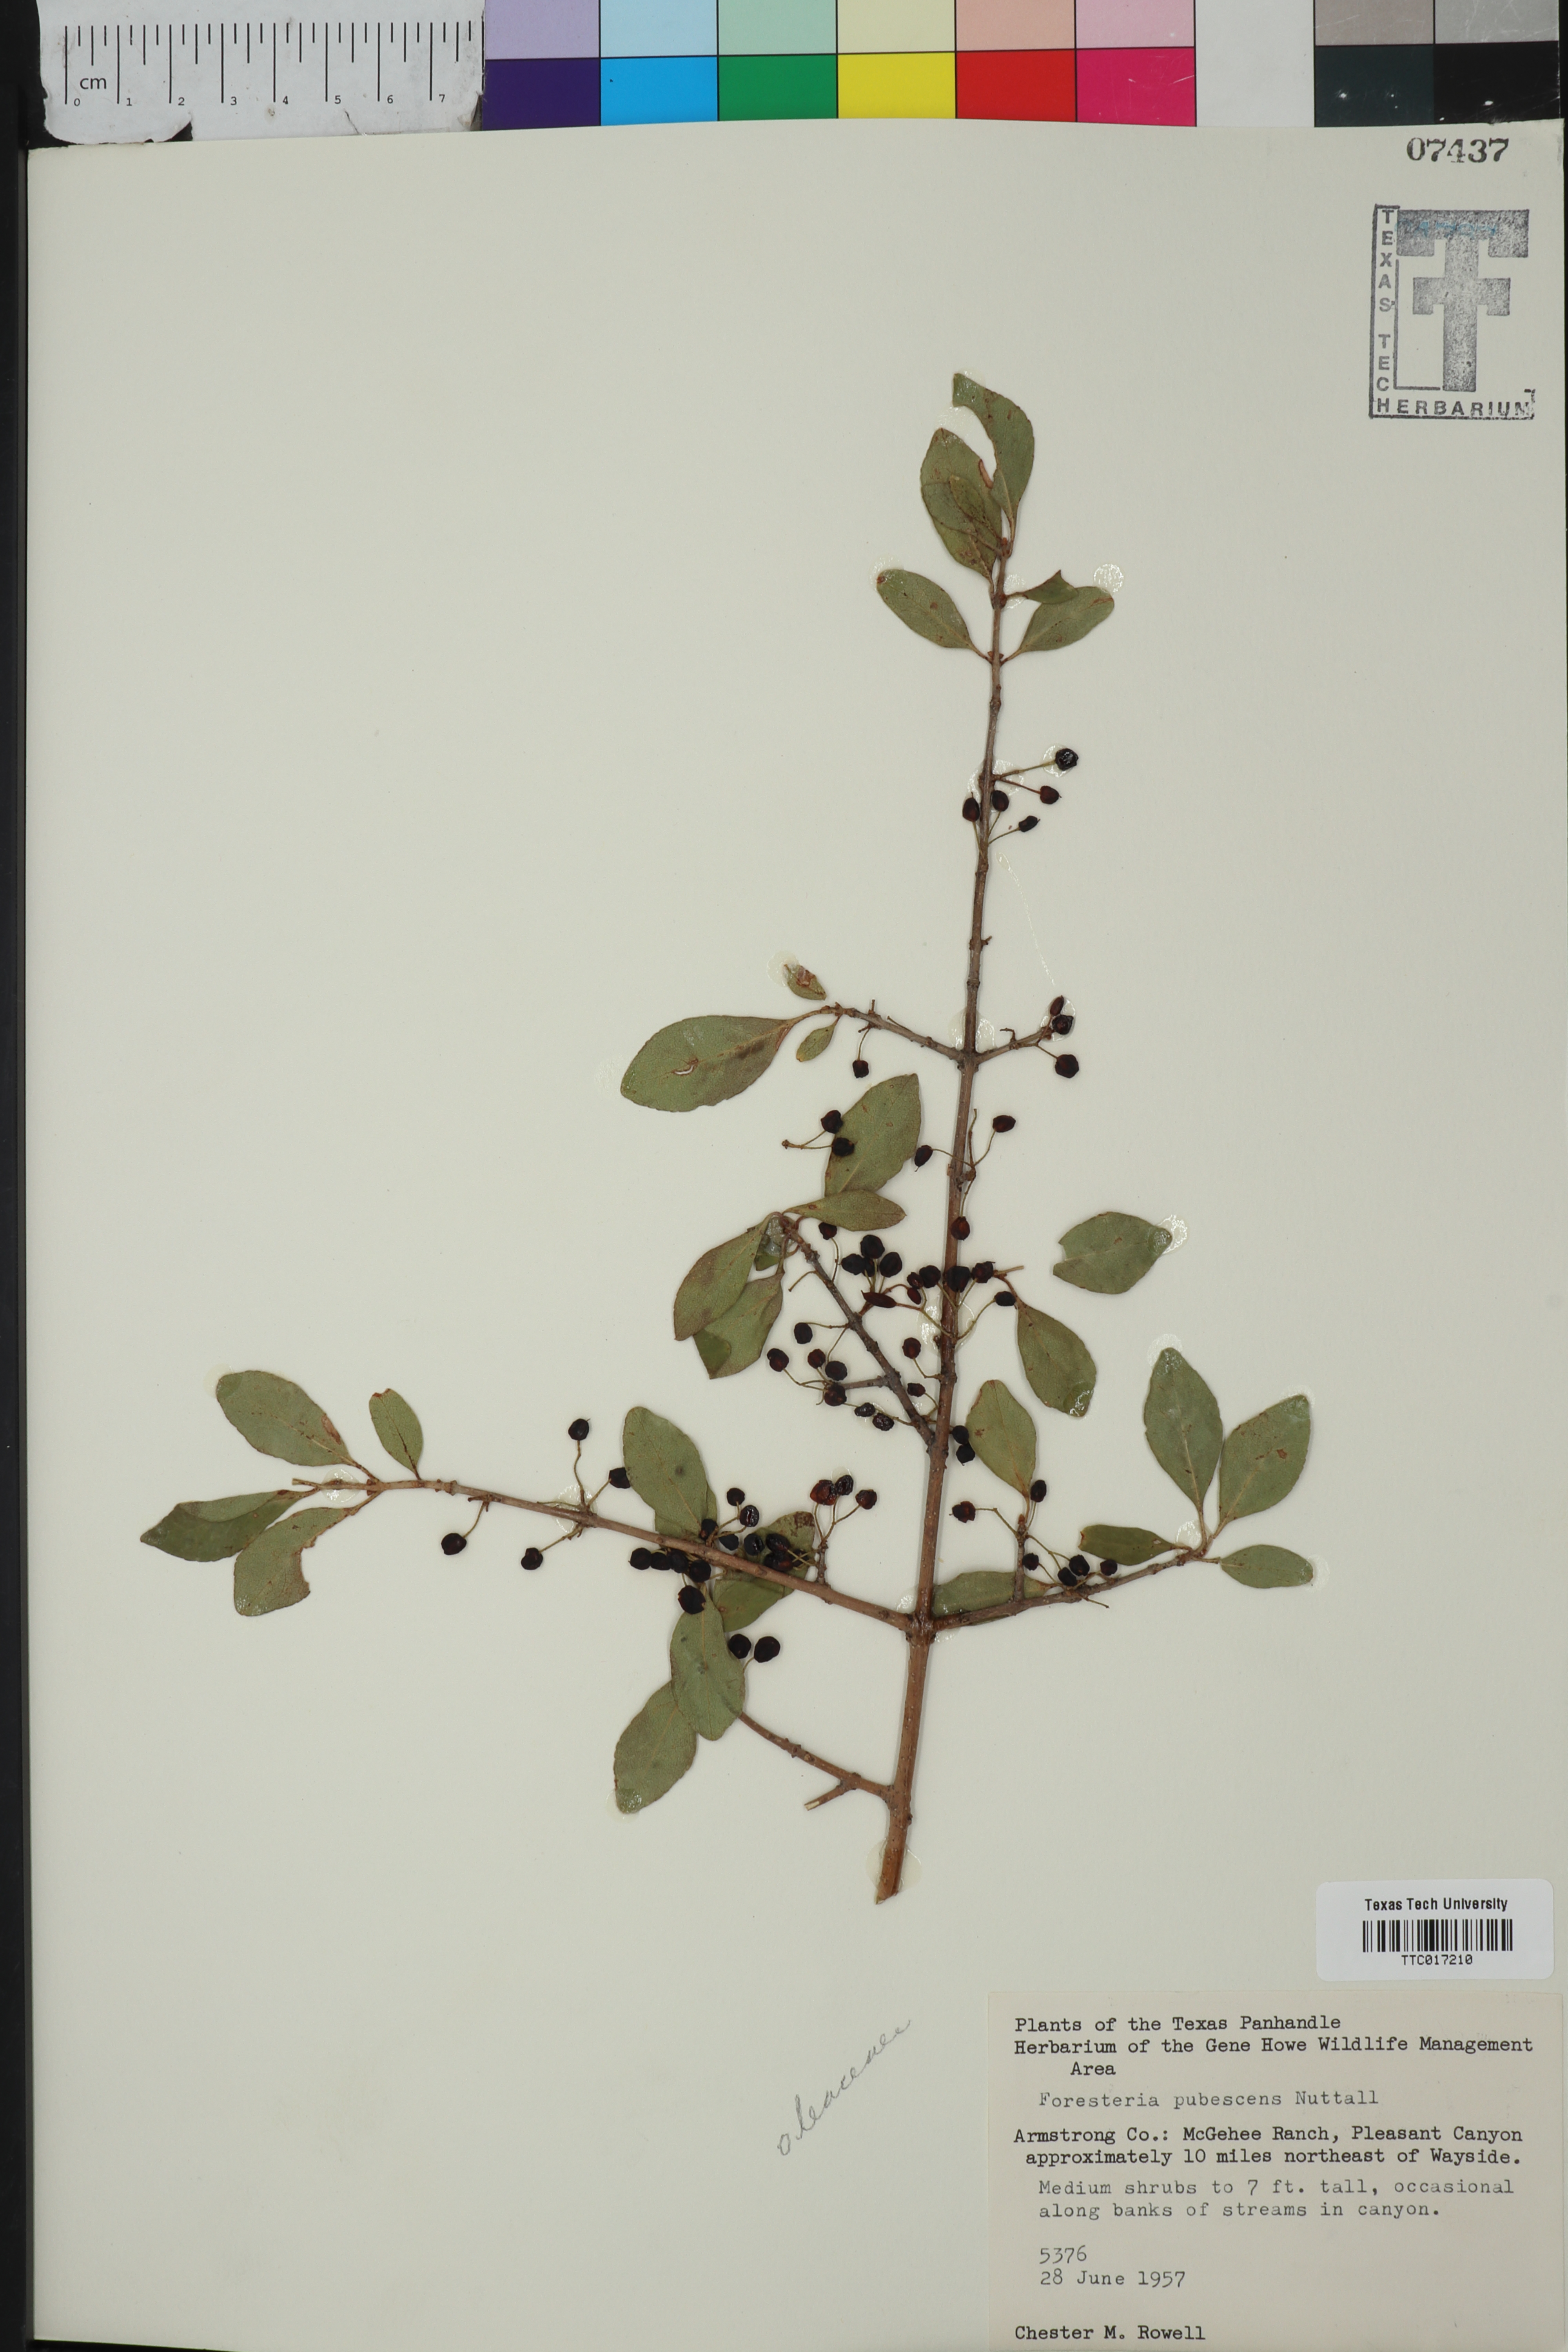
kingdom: Plantae
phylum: Tracheophyta
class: Magnoliopsida
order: Lamiales
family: Oleaceae
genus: Forestiera
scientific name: Forestiera pubescens
